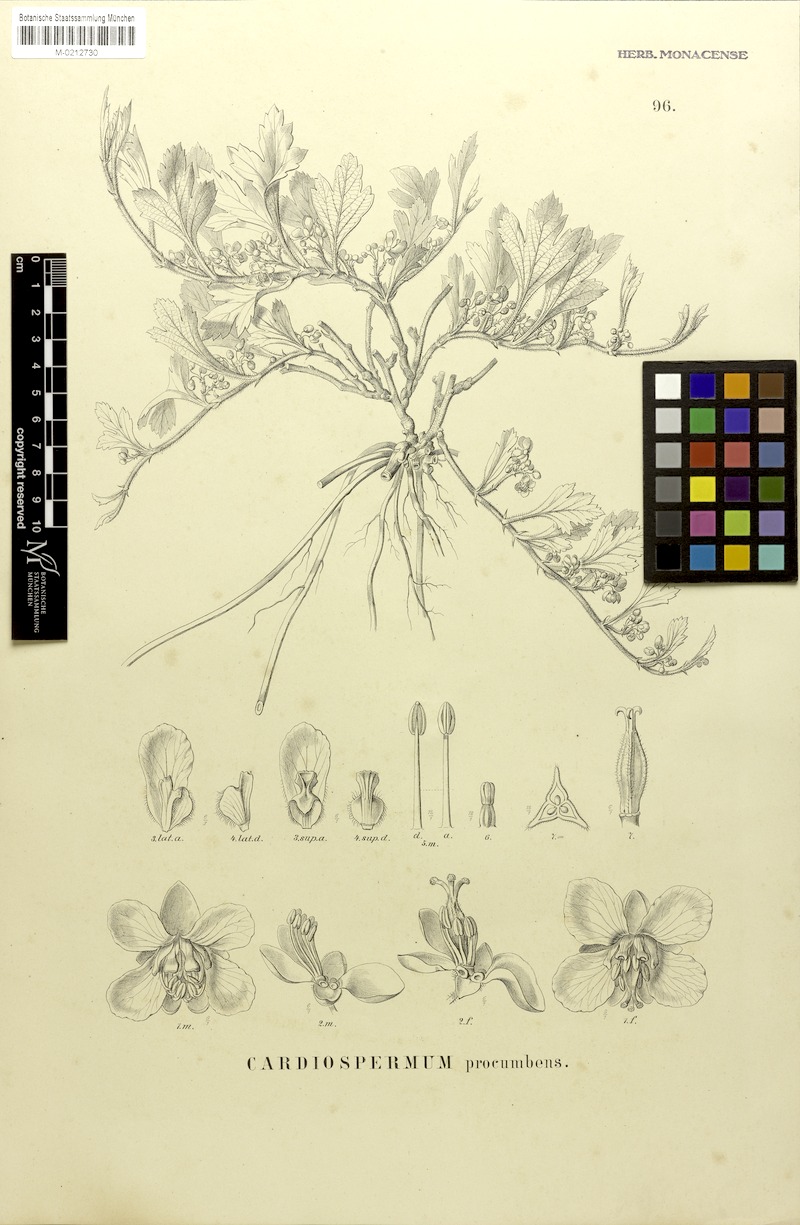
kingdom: Plantae
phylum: Tracheophyta
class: Magnoliopsida
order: Sapindales
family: Sapindaceae
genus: Urvillea
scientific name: Urvillea procumbens
